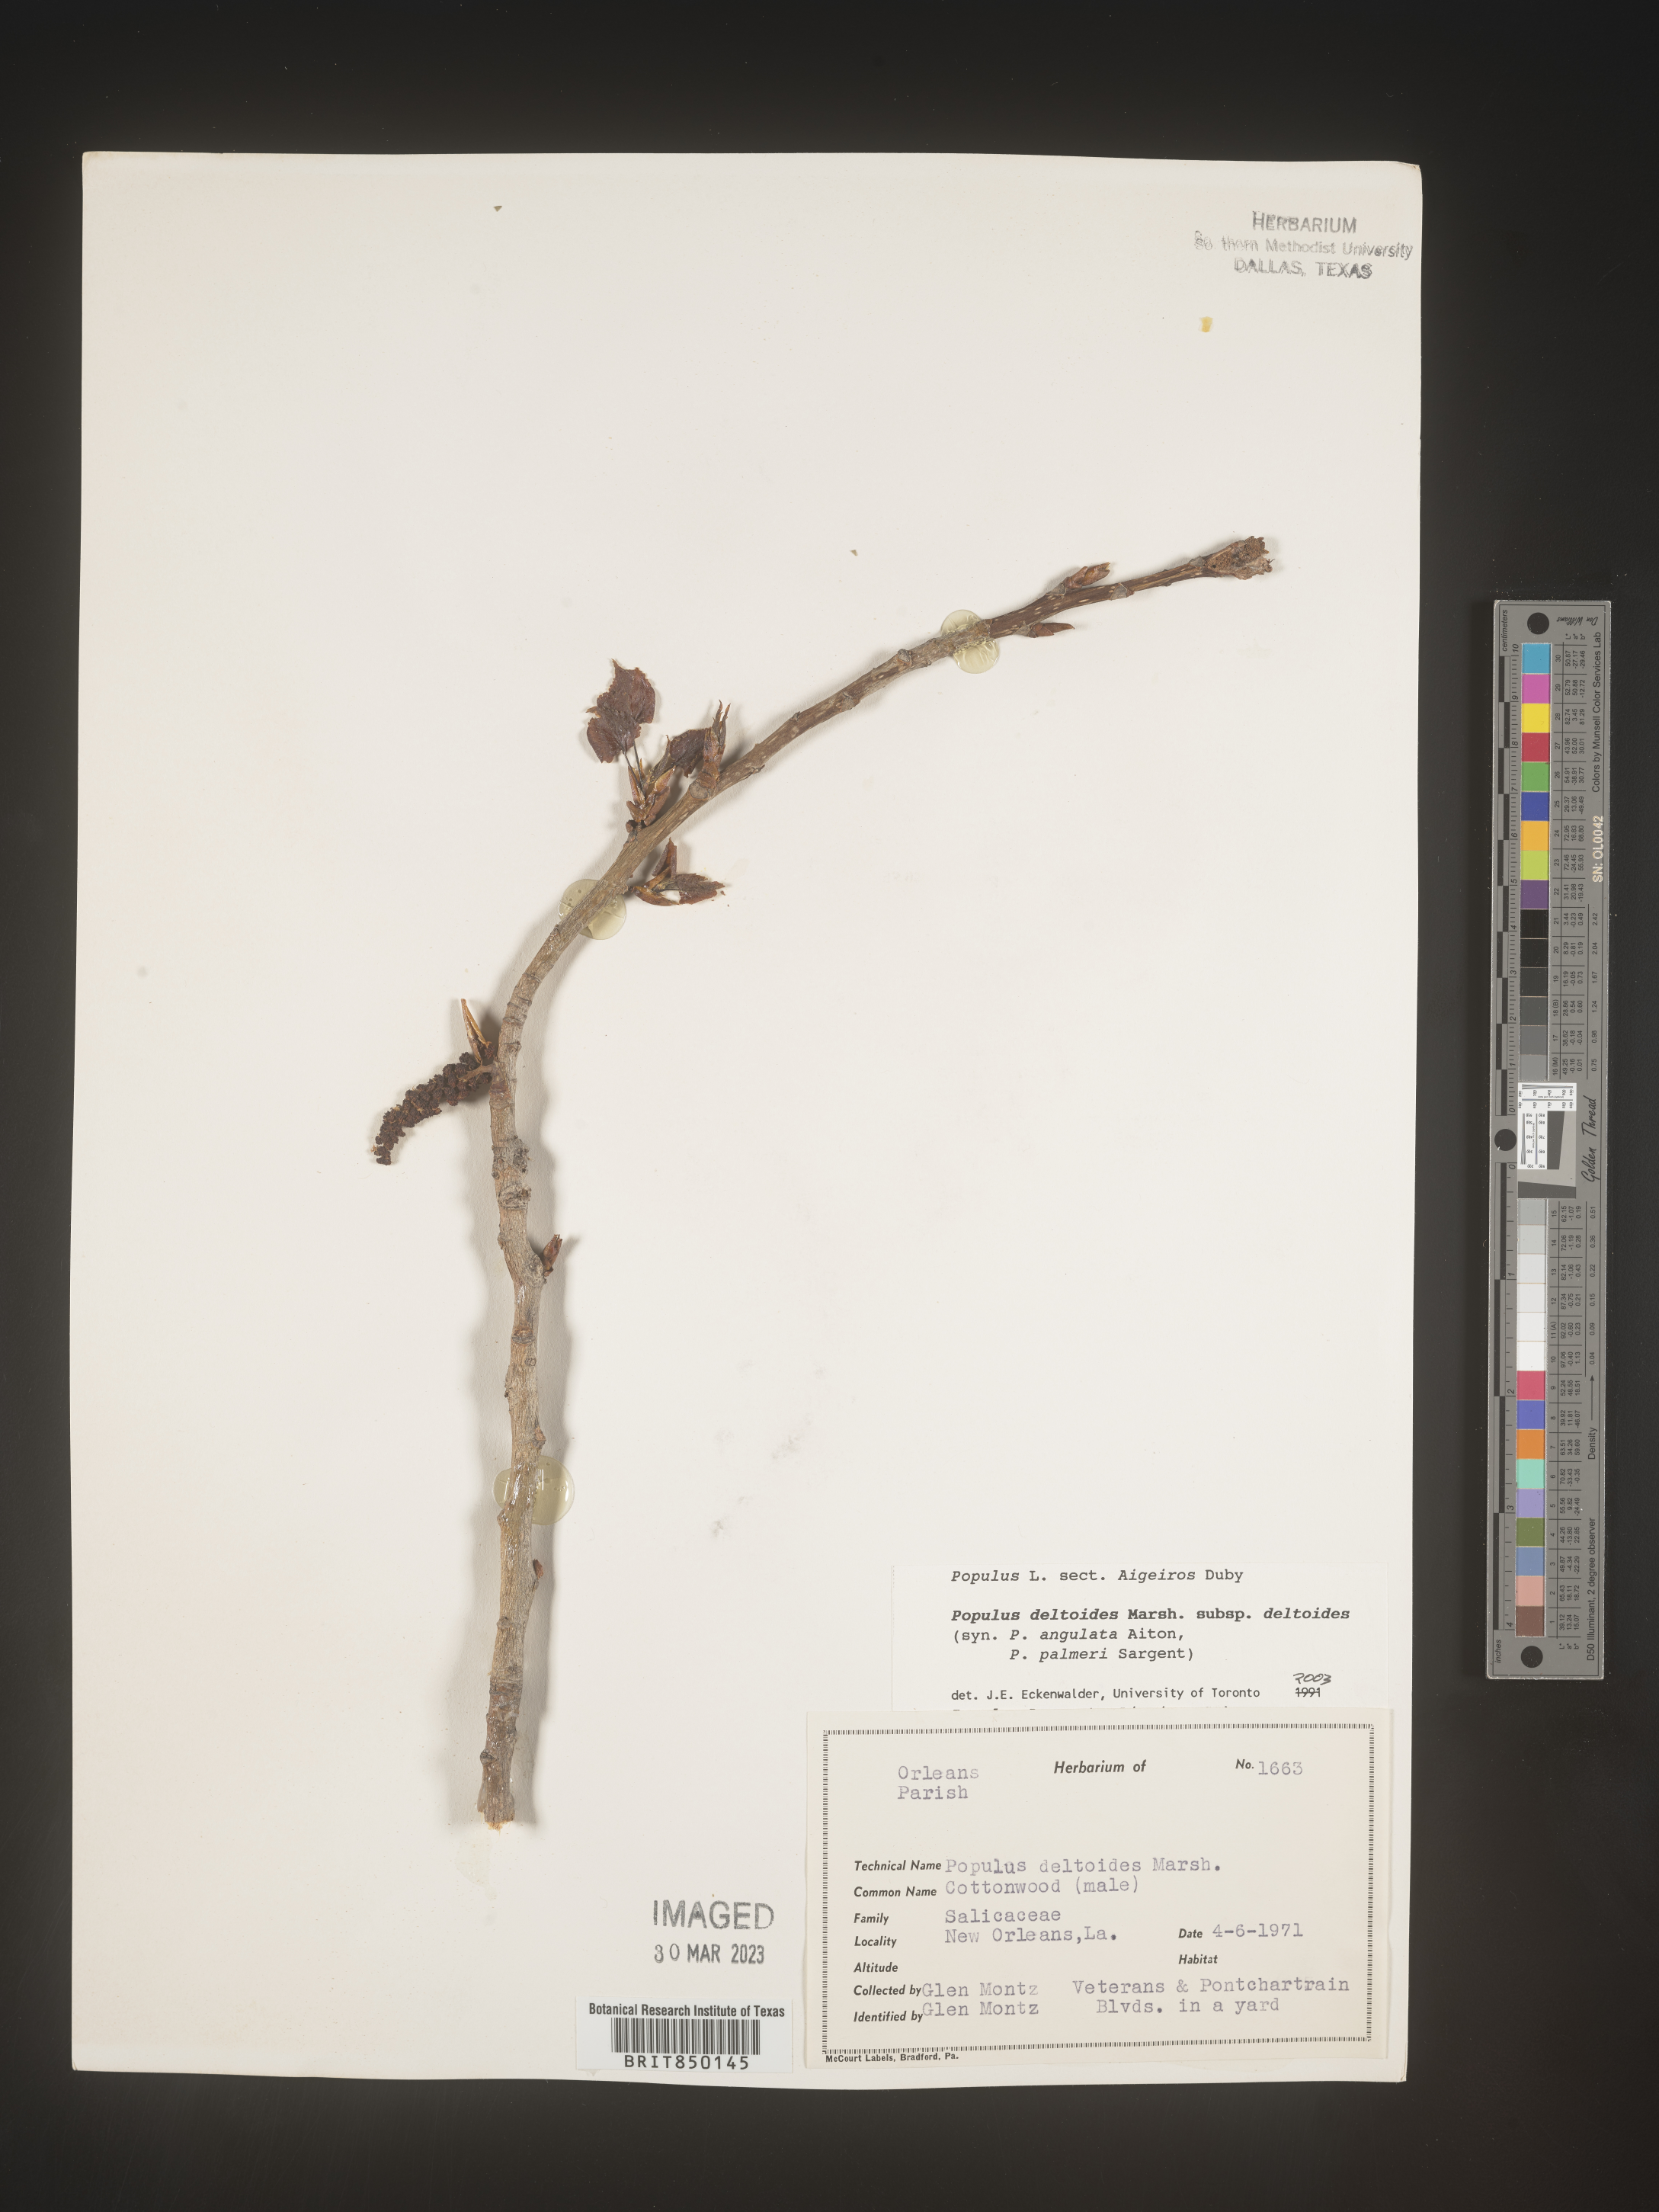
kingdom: Plantae
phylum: Tracheophyta
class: Magnoliopsida
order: Malpighiales
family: Salicaceae
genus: Populus
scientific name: Populus deltoides
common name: Eastern cottonwood
